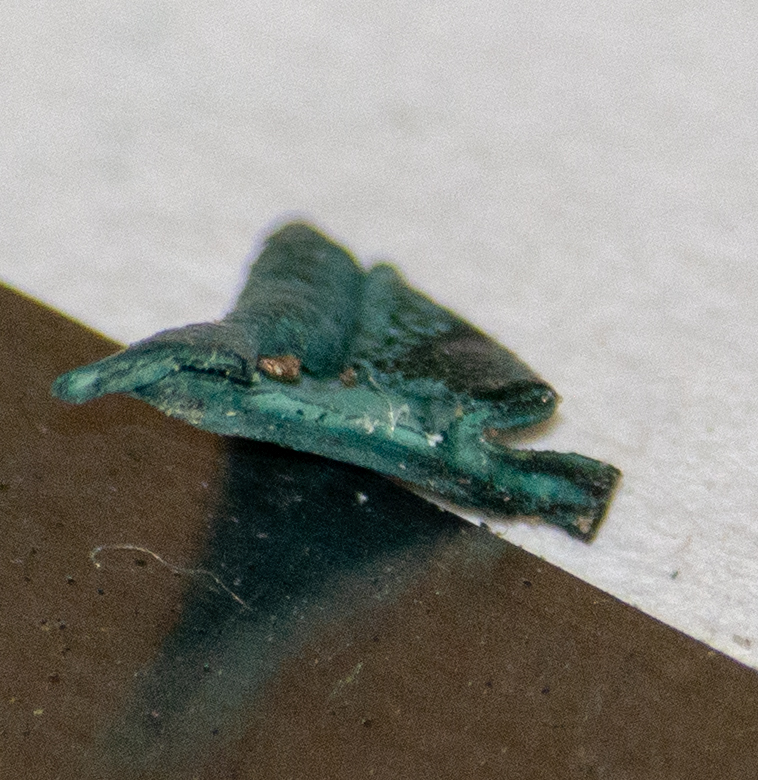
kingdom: Fungi
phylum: Ascomycota
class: Leotiomycetes
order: Helotiales
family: Chlorociboriaceae
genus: Chlorociboria
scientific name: Chlorociboria aeruginascens
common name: almindelig grønskive
